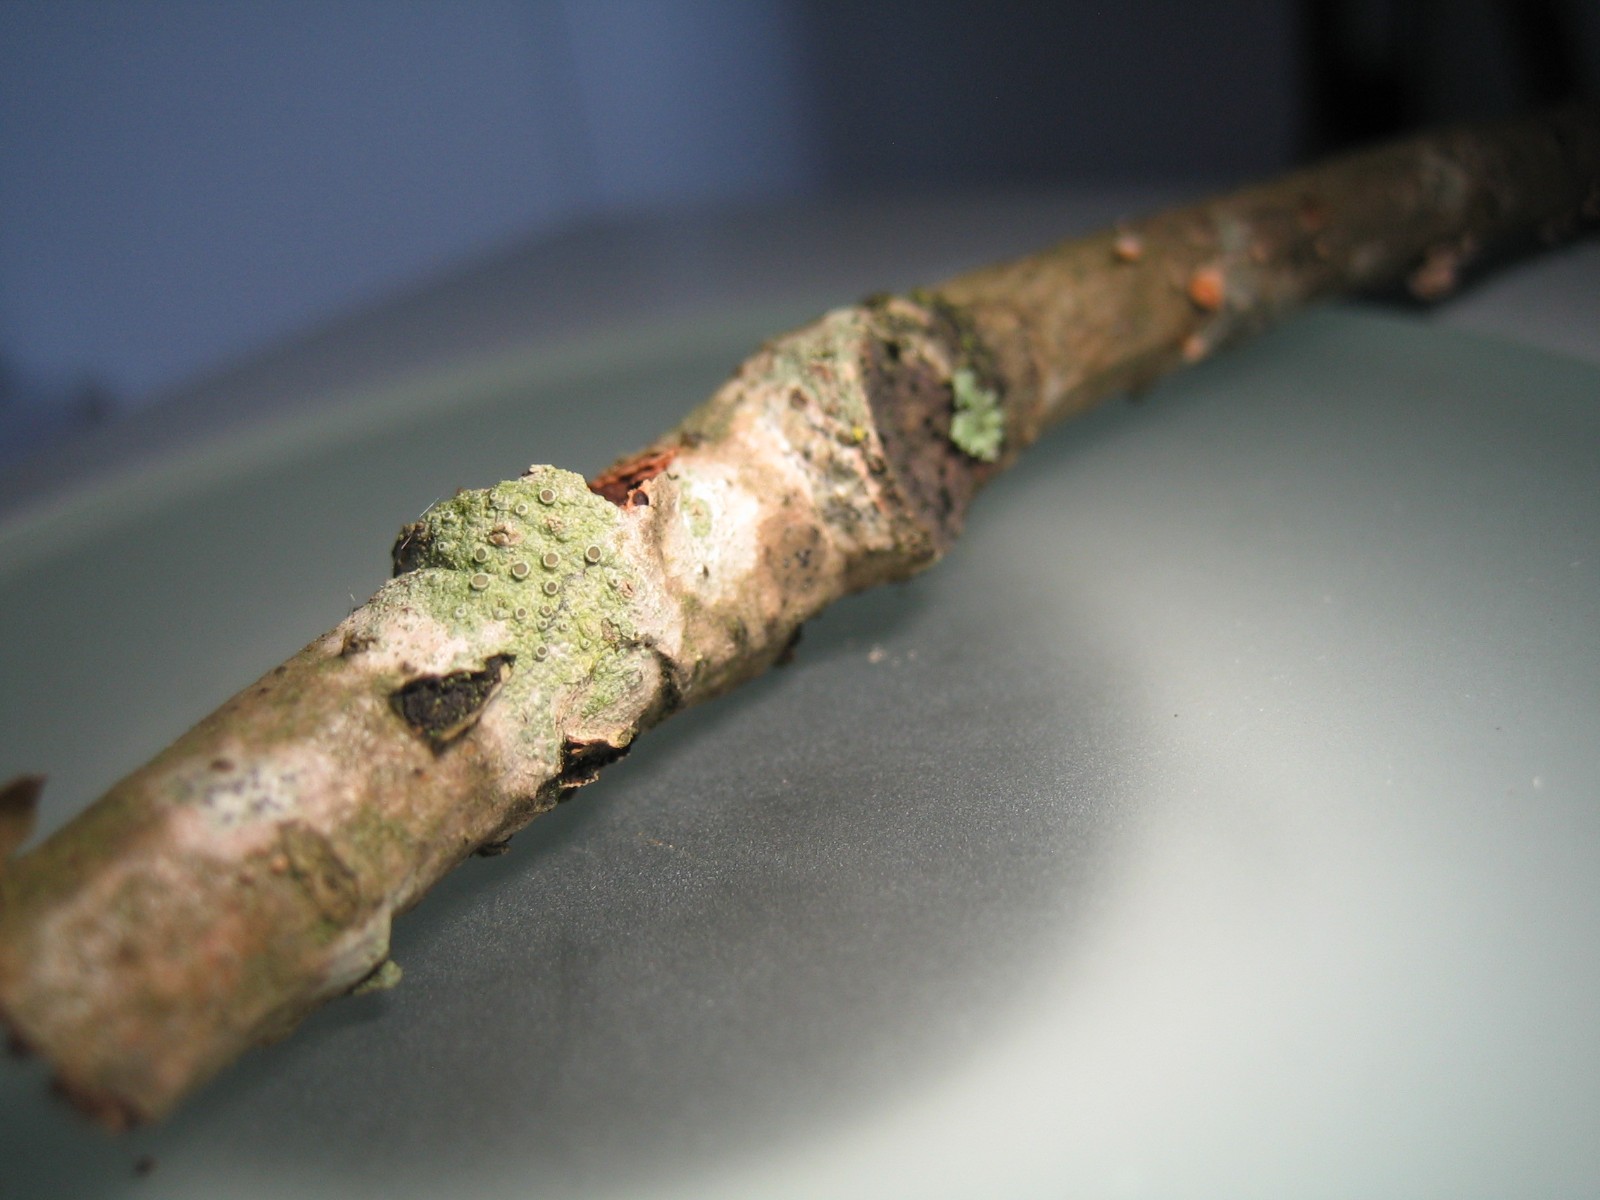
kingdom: Fungi
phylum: Ascomycota
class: Lecanoromycetes
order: Lecanorales
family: Lecanoraceae
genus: Lecanora
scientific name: Lecanora chlarotera
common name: brun kantskivelav
